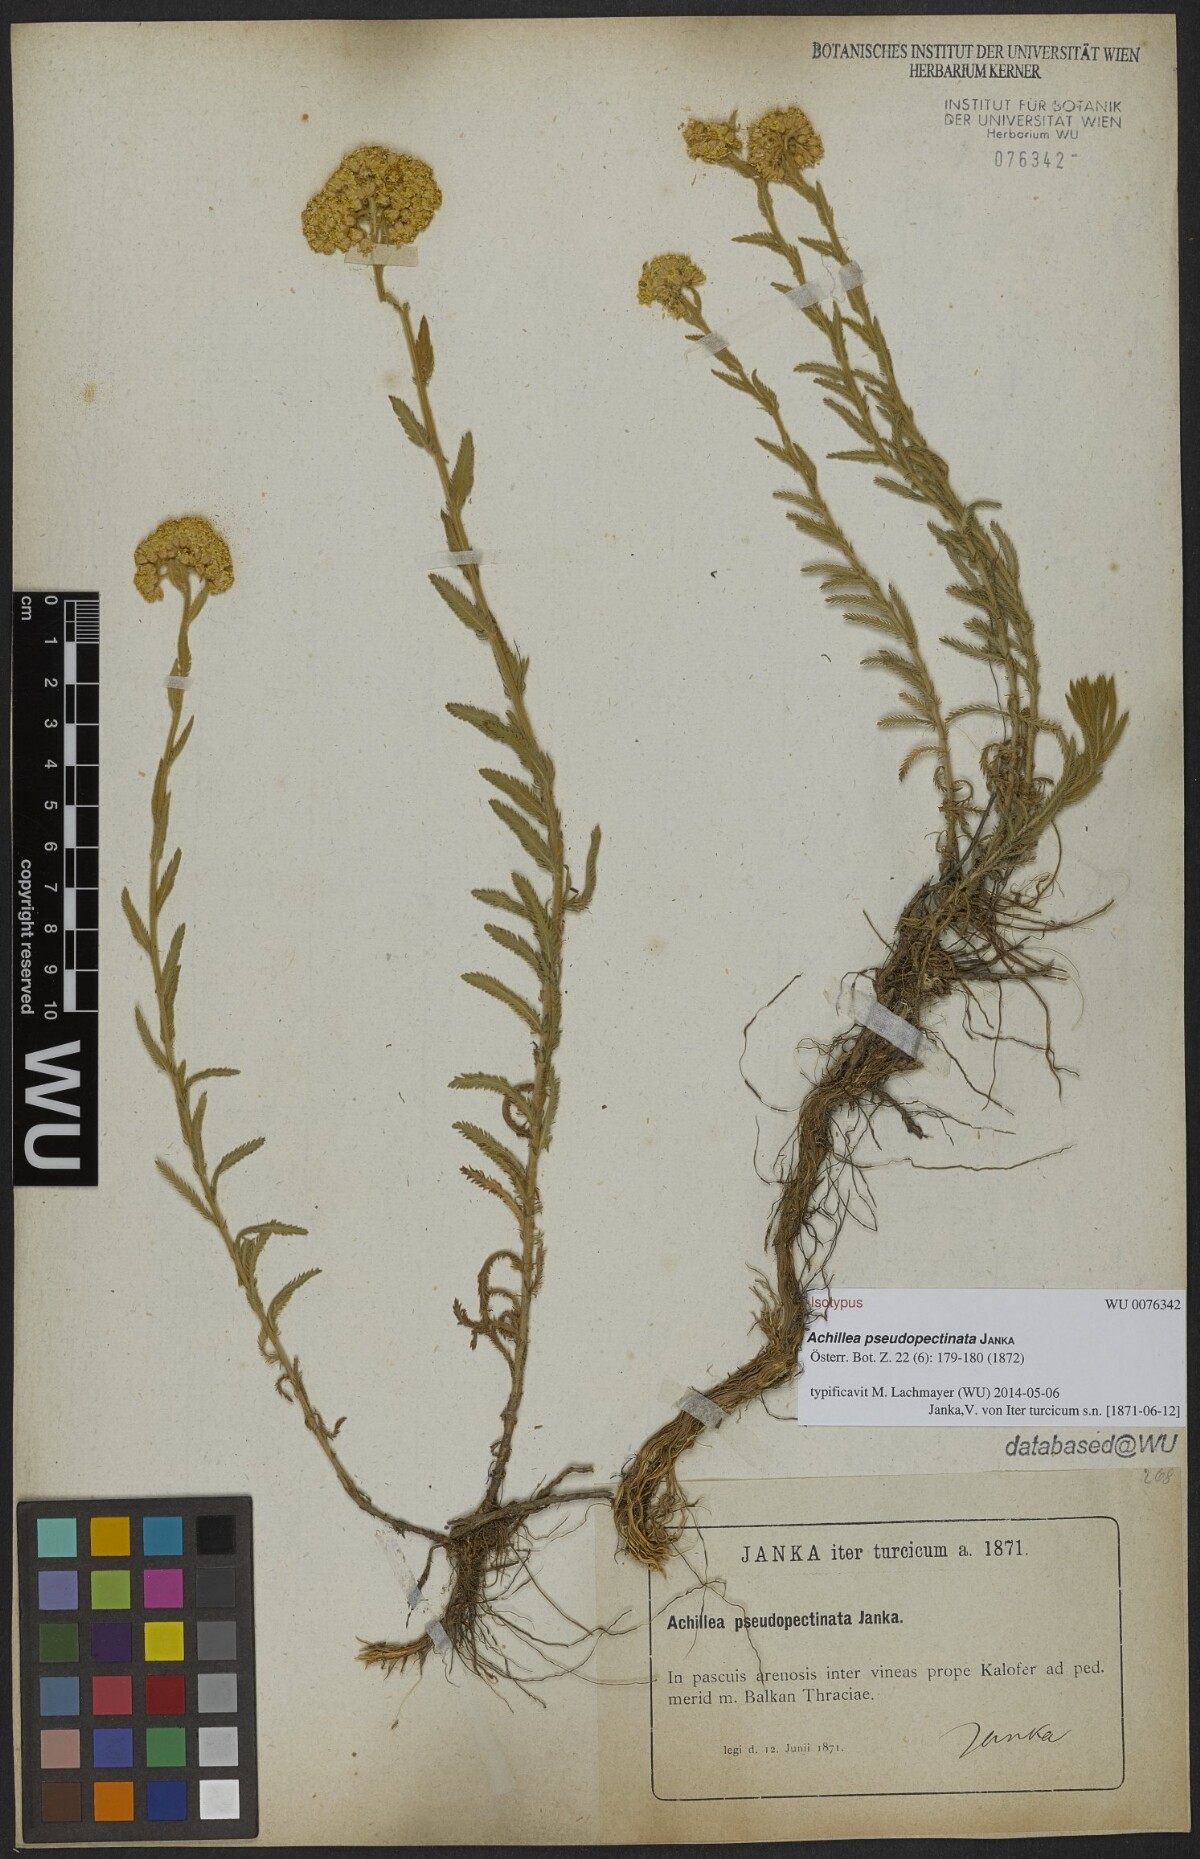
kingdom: Plantae
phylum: Tracheophyta
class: Magnoliopsida
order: Asterales
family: Asteraceae
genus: Achillea
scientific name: Achillea pseudopectinata
